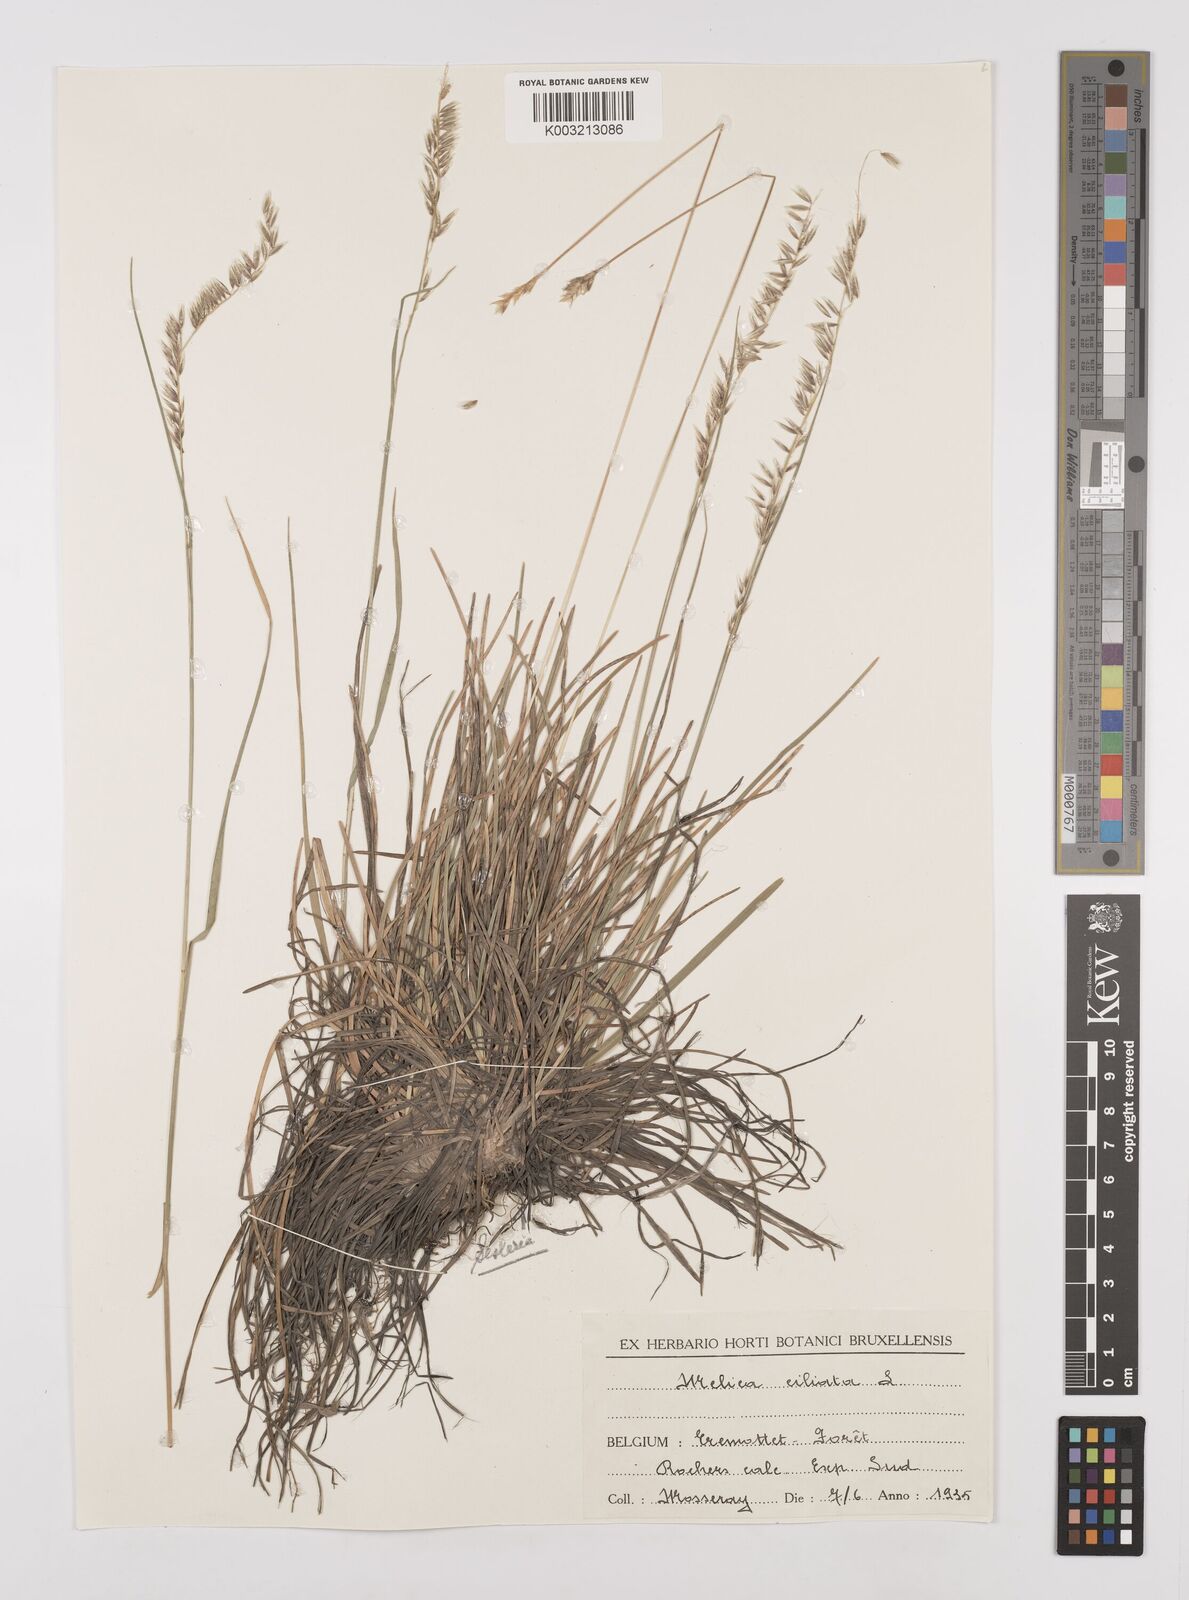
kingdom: Plantae
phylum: Tracheophyta
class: Liliopsida
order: Poales
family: Poaceae
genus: Melica
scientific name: Melica ciliata
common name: Hairy melicgrass
